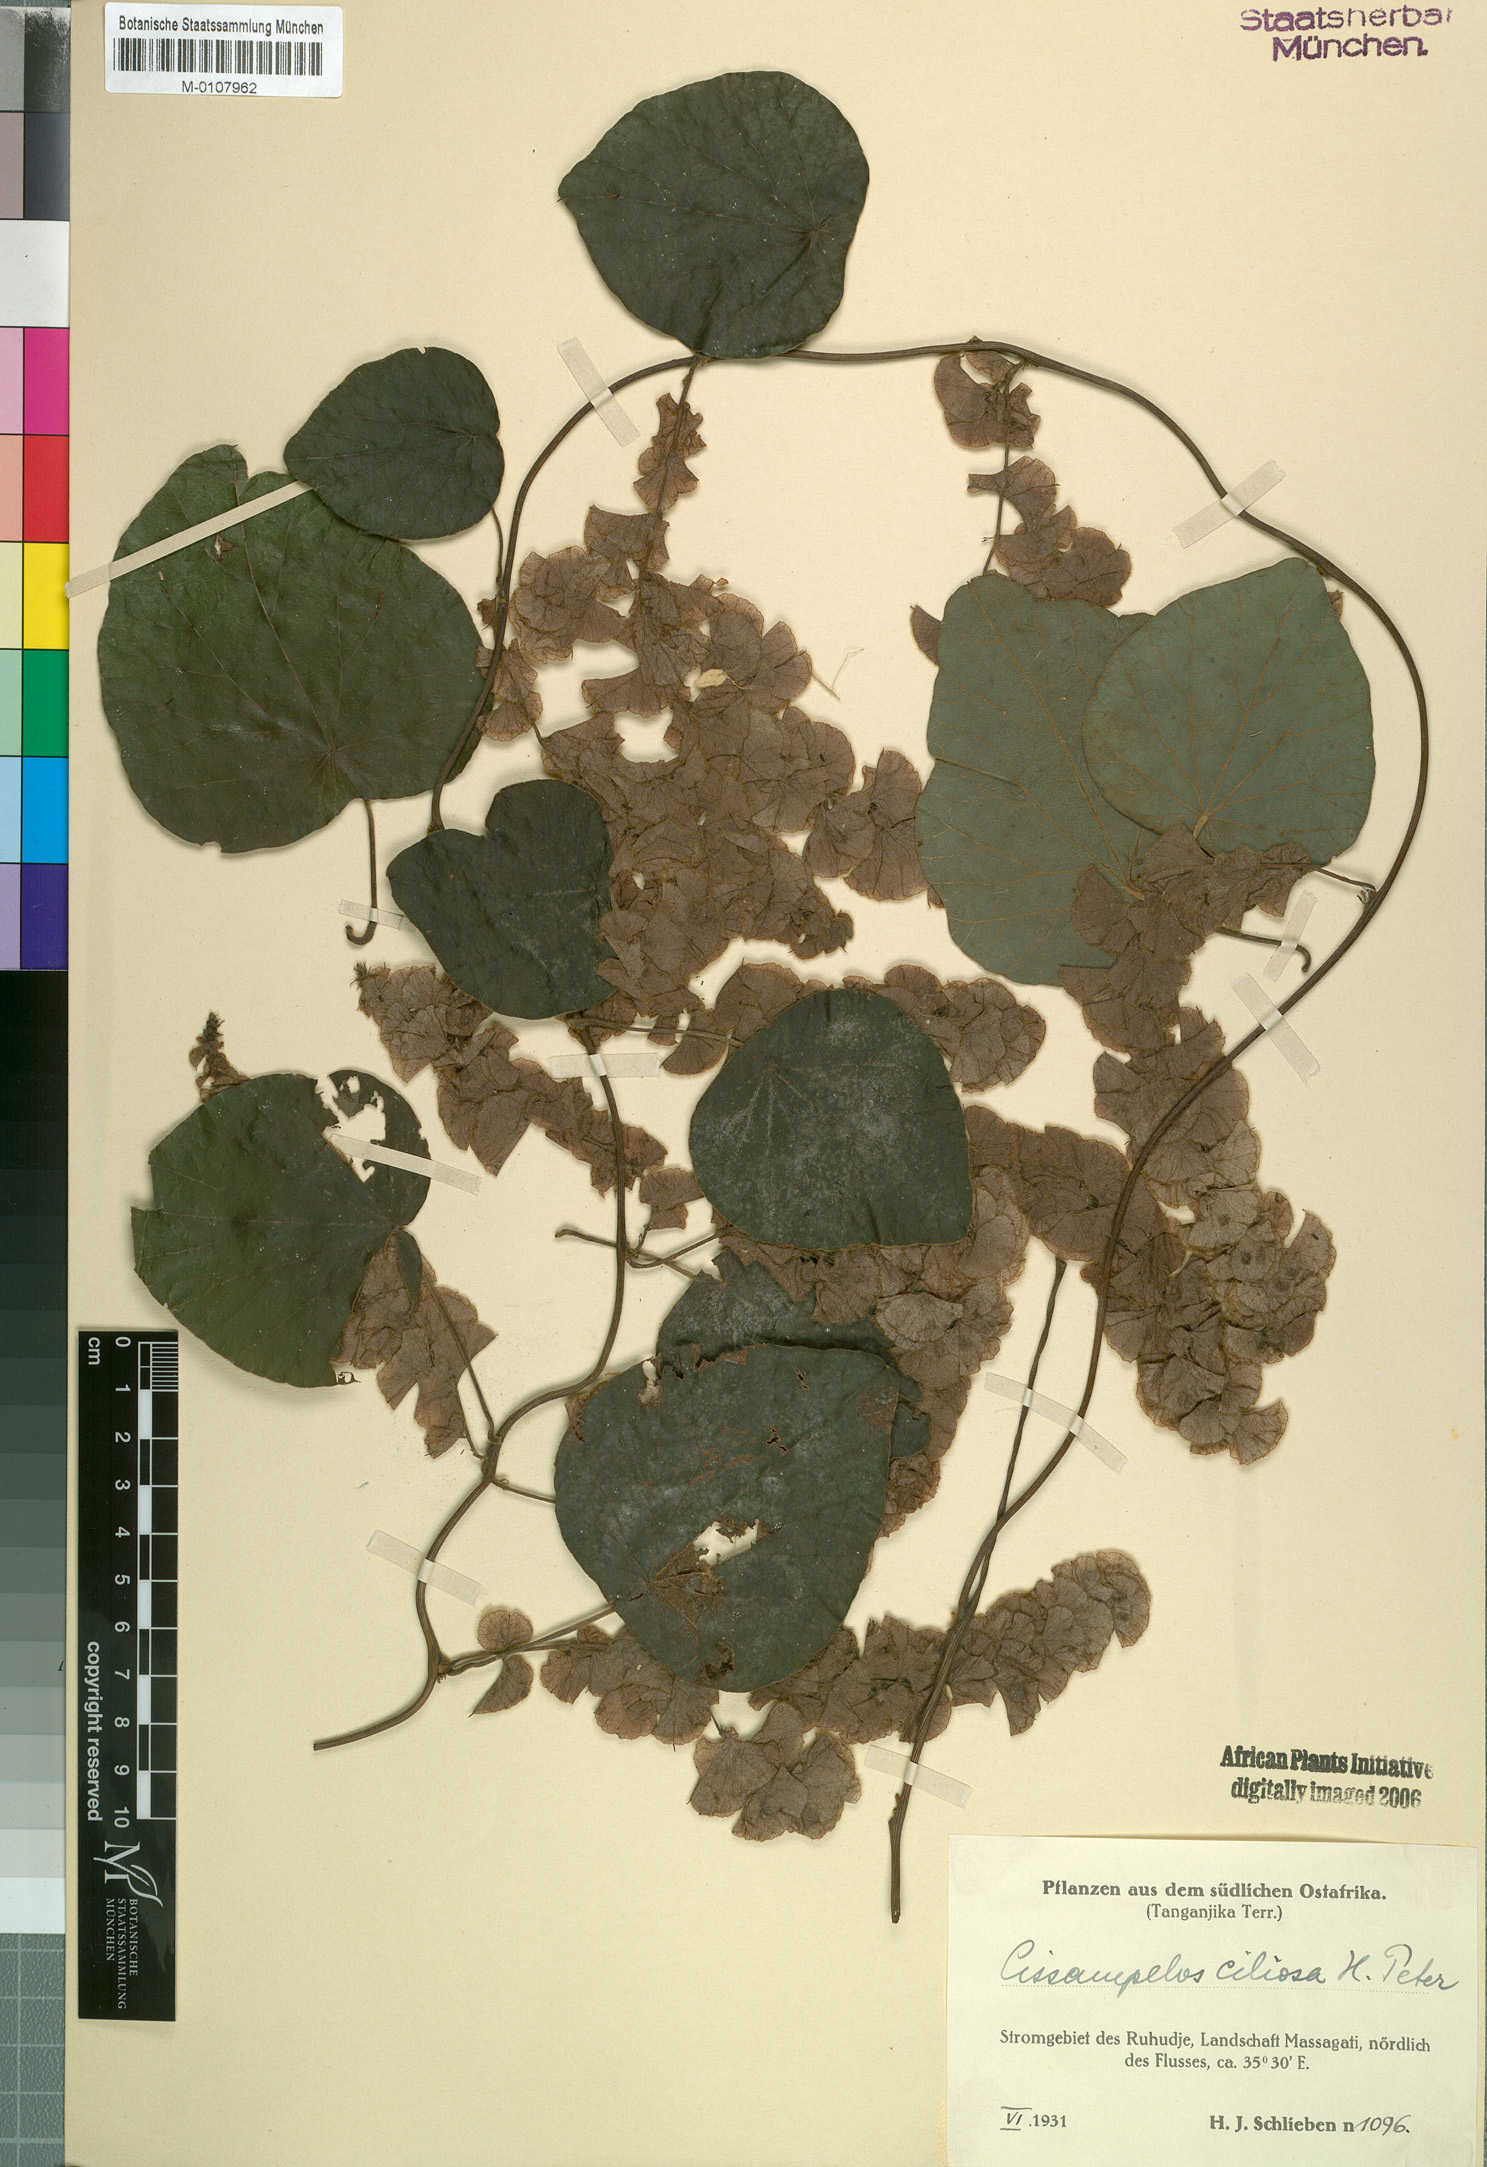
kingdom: Plantae
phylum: Tracheophyta
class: Magnoliopsida
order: Ranunculales
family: Menispermaceae
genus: Cissampelos
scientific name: Cissampelos owariensis
